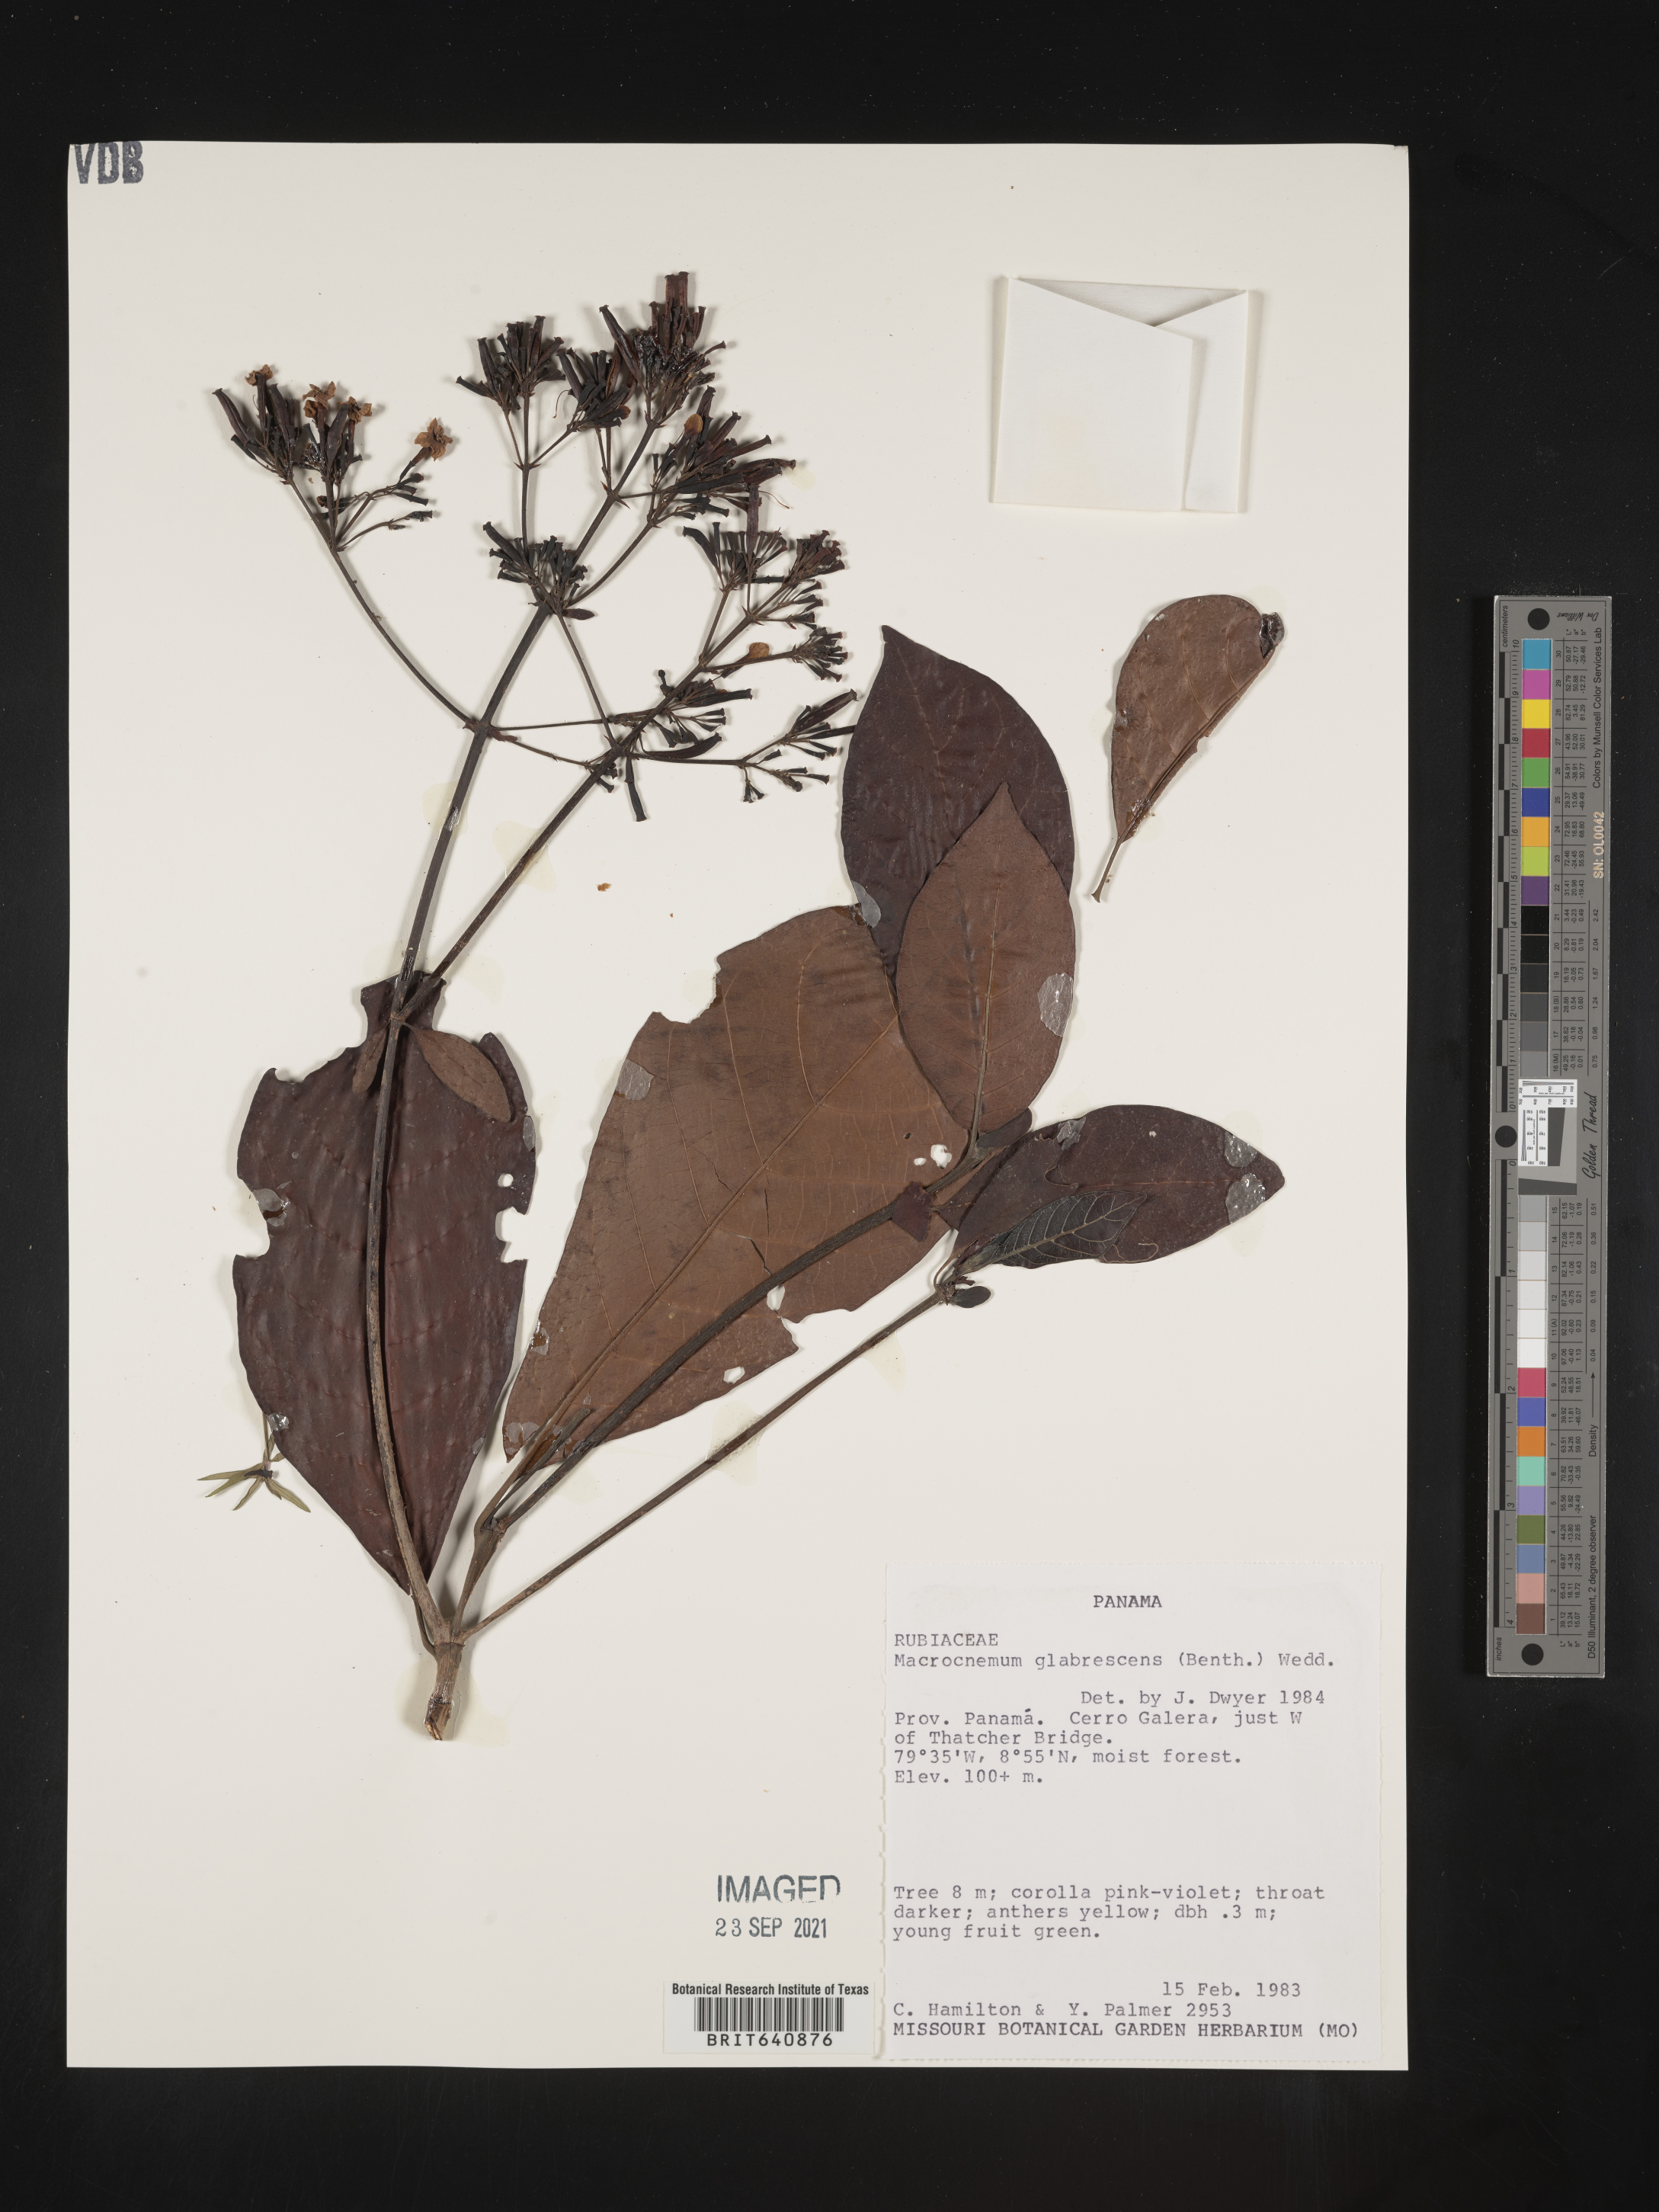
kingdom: Plantae
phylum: Tracheophyta
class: Magnoliopsida
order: Gentianales
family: Rubiaceae
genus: Macrocnemum
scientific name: Macrocnemum
